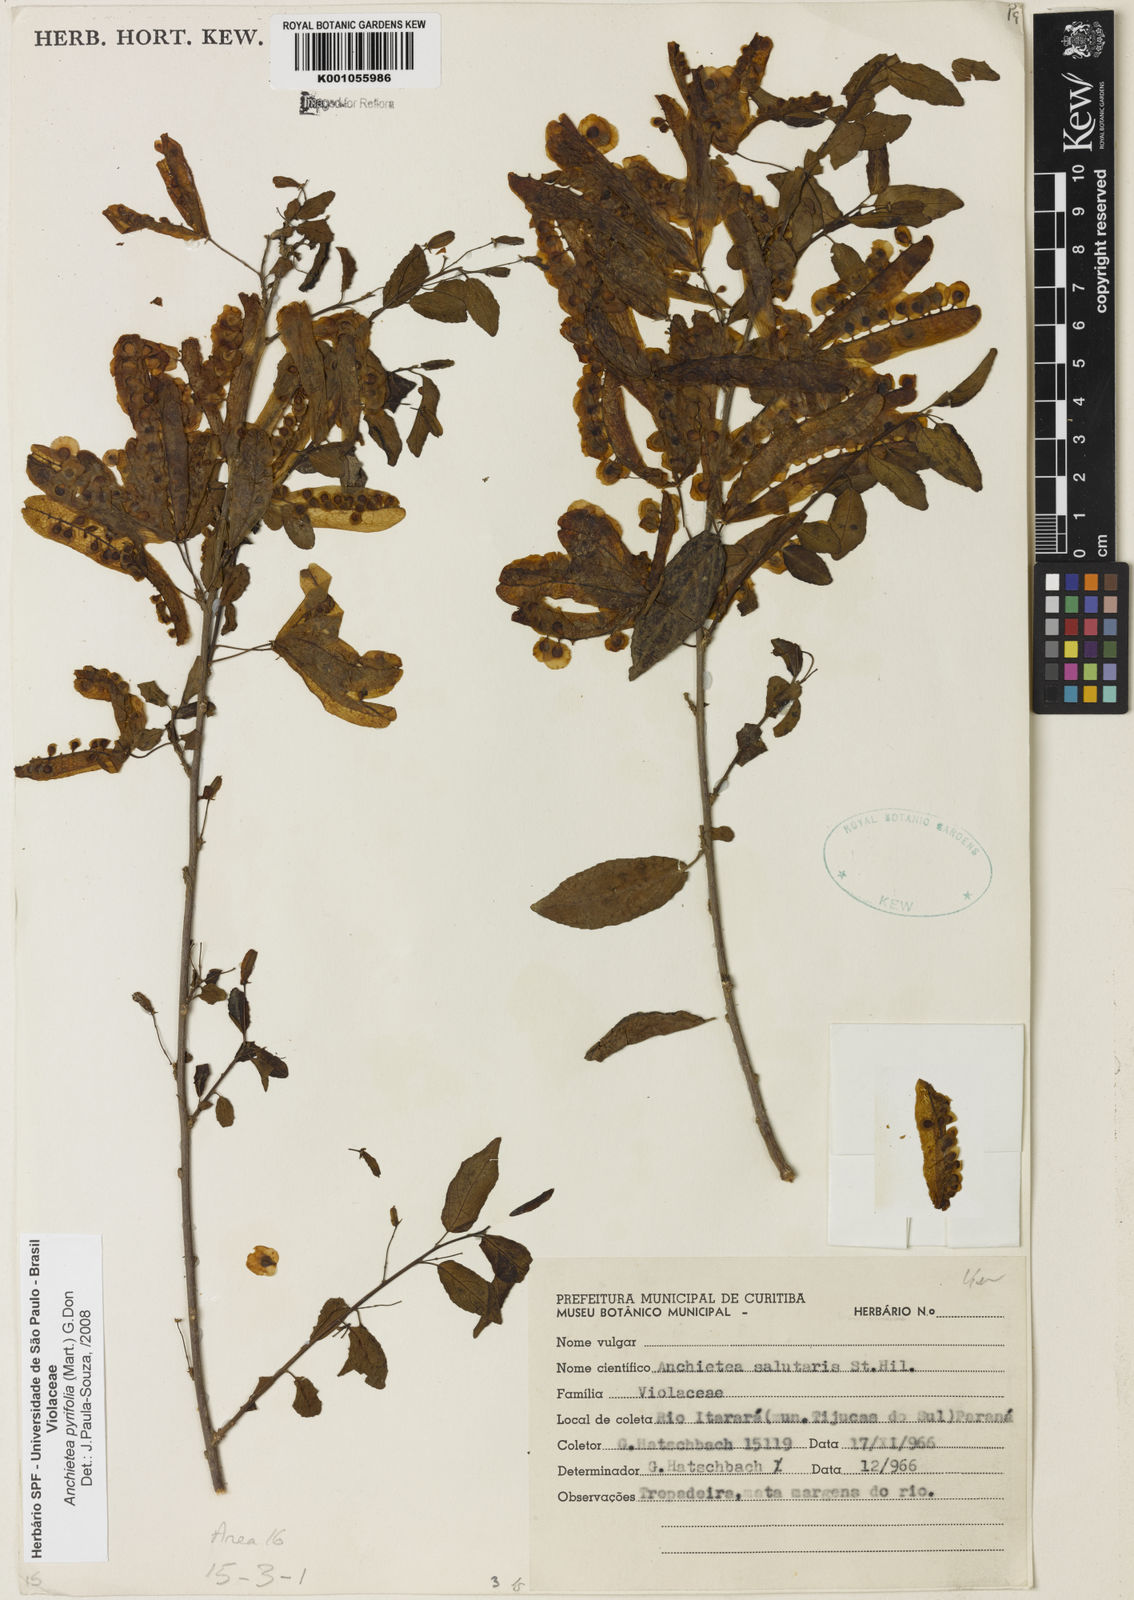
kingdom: Plantae
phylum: Tracheophyta
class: Magnoliopsida
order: Malpighiales
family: Violaceae
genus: Anchietea
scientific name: Anchietea pyrifolia
